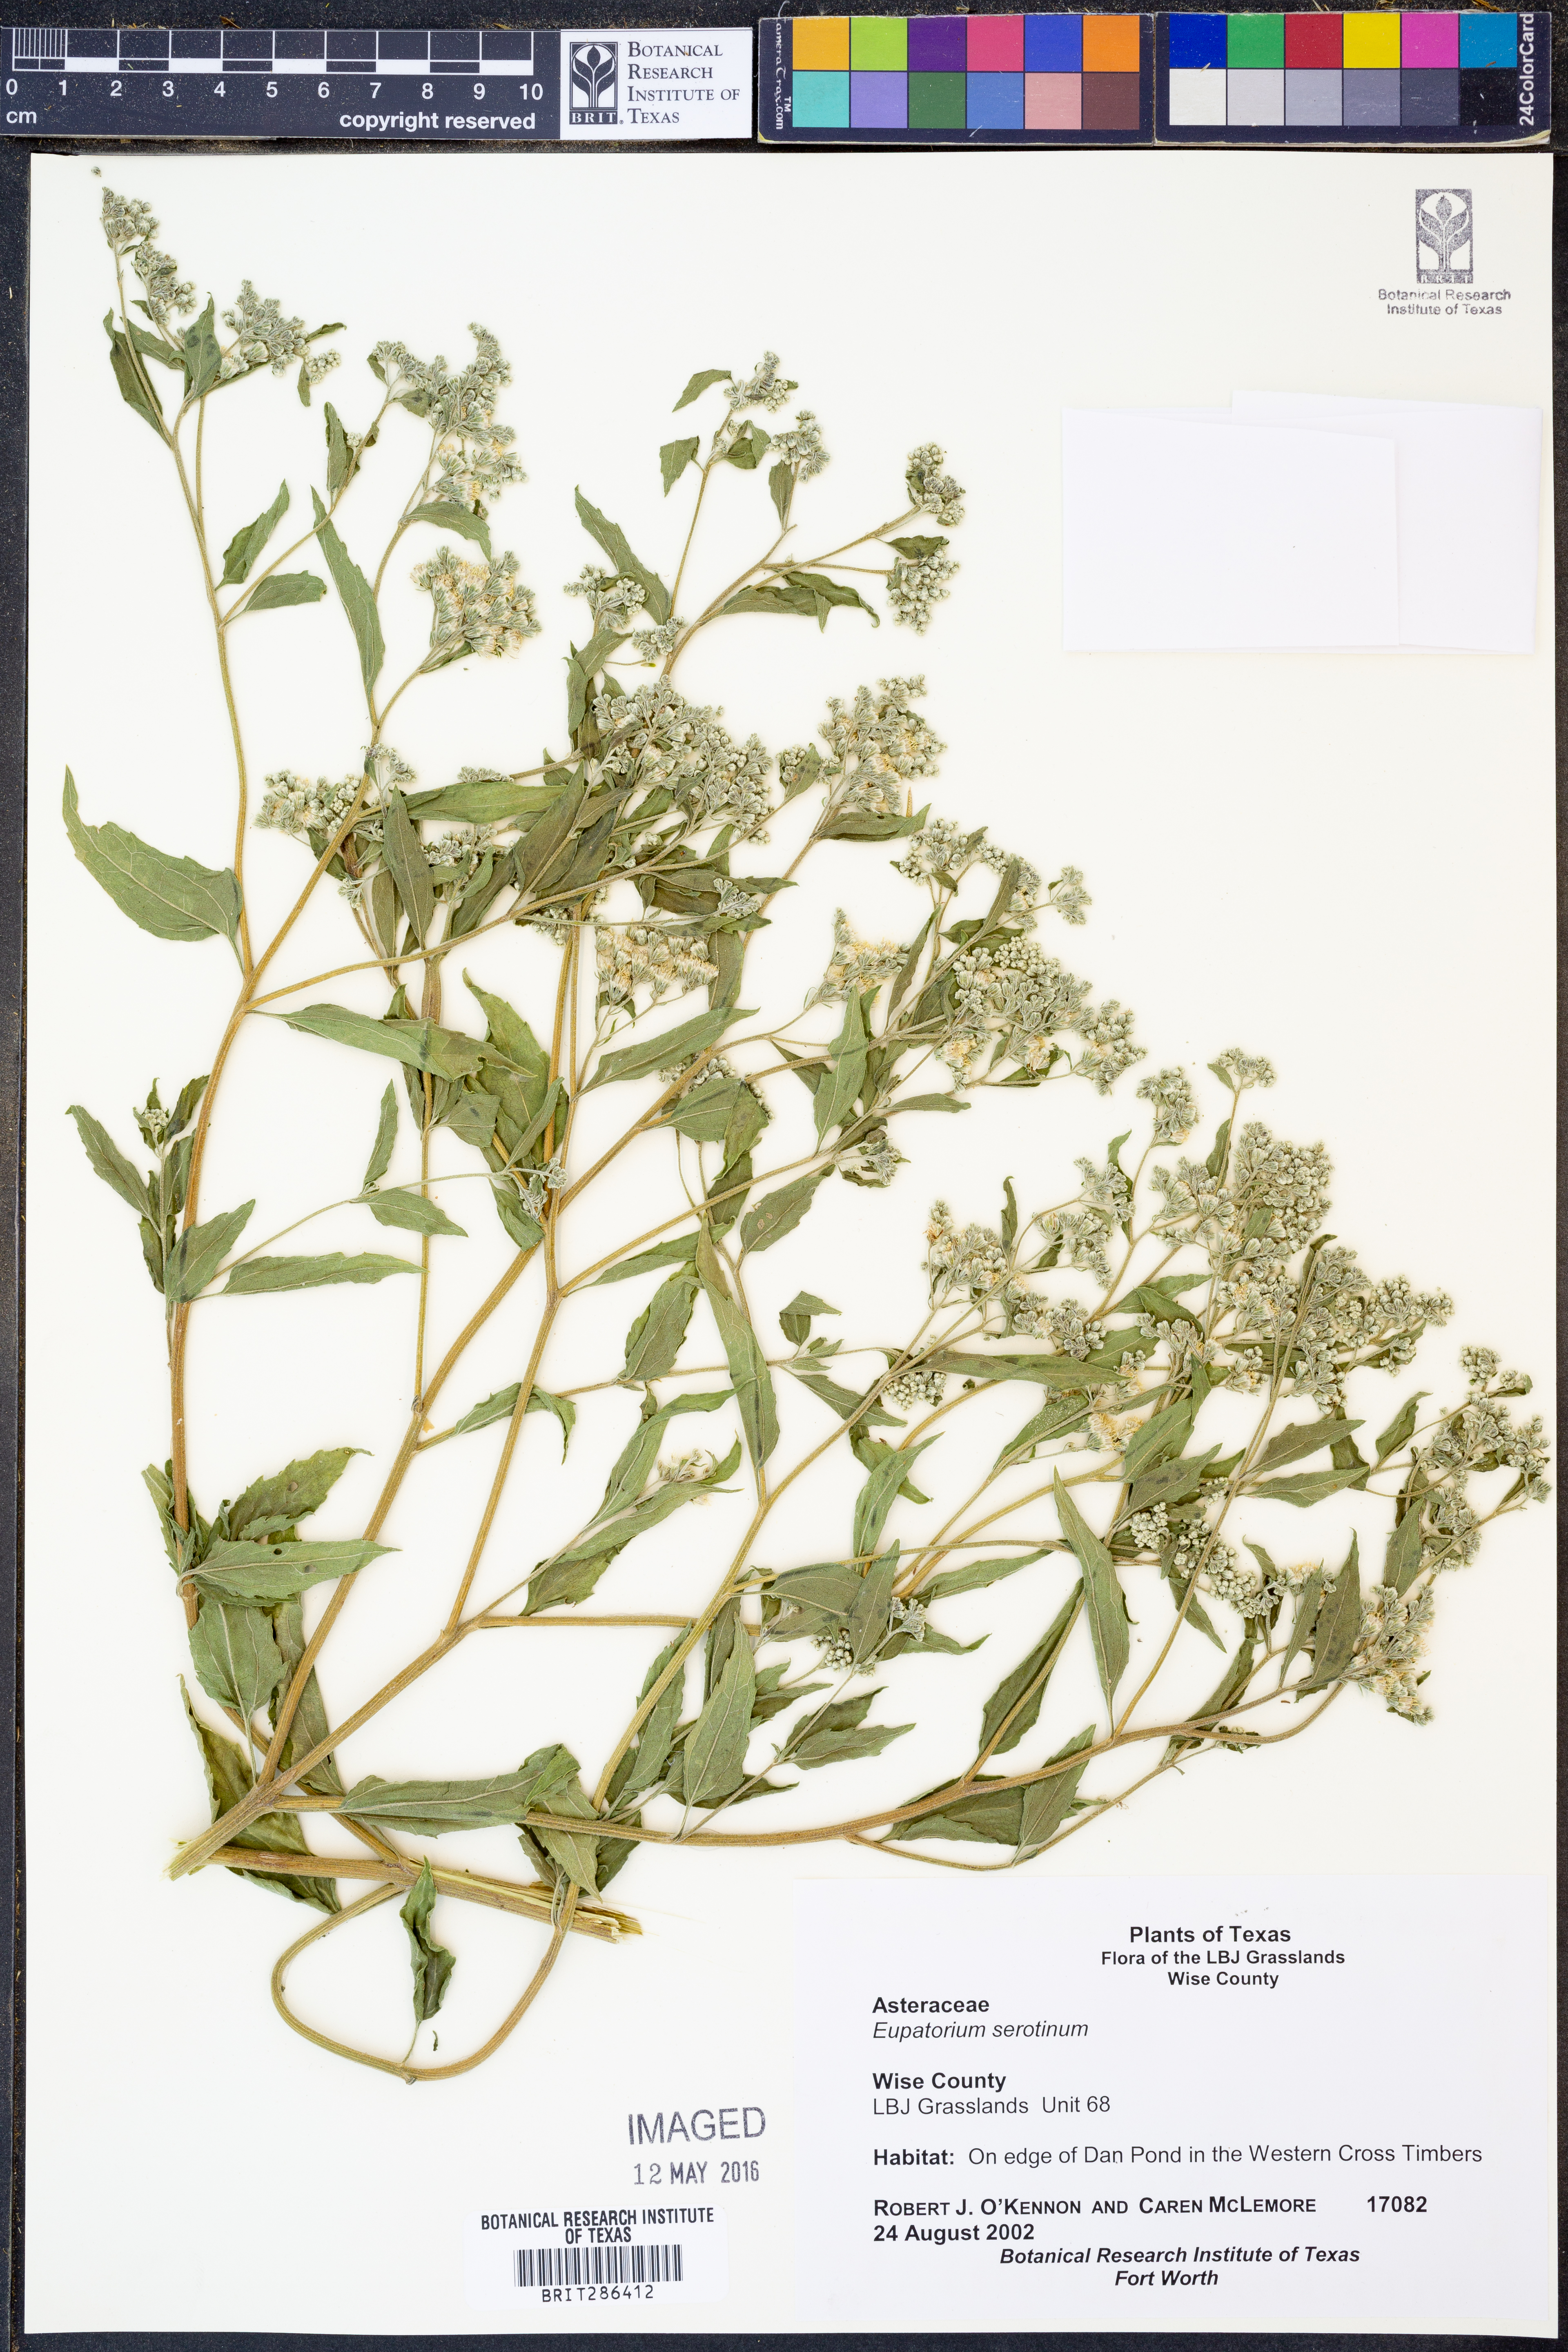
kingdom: Plantae
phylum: Tracheophyta
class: Magnoliopsida
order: Asterales
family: Asteraceae
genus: Eupatorium
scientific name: Eupatorium serotinum
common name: Late boneset
